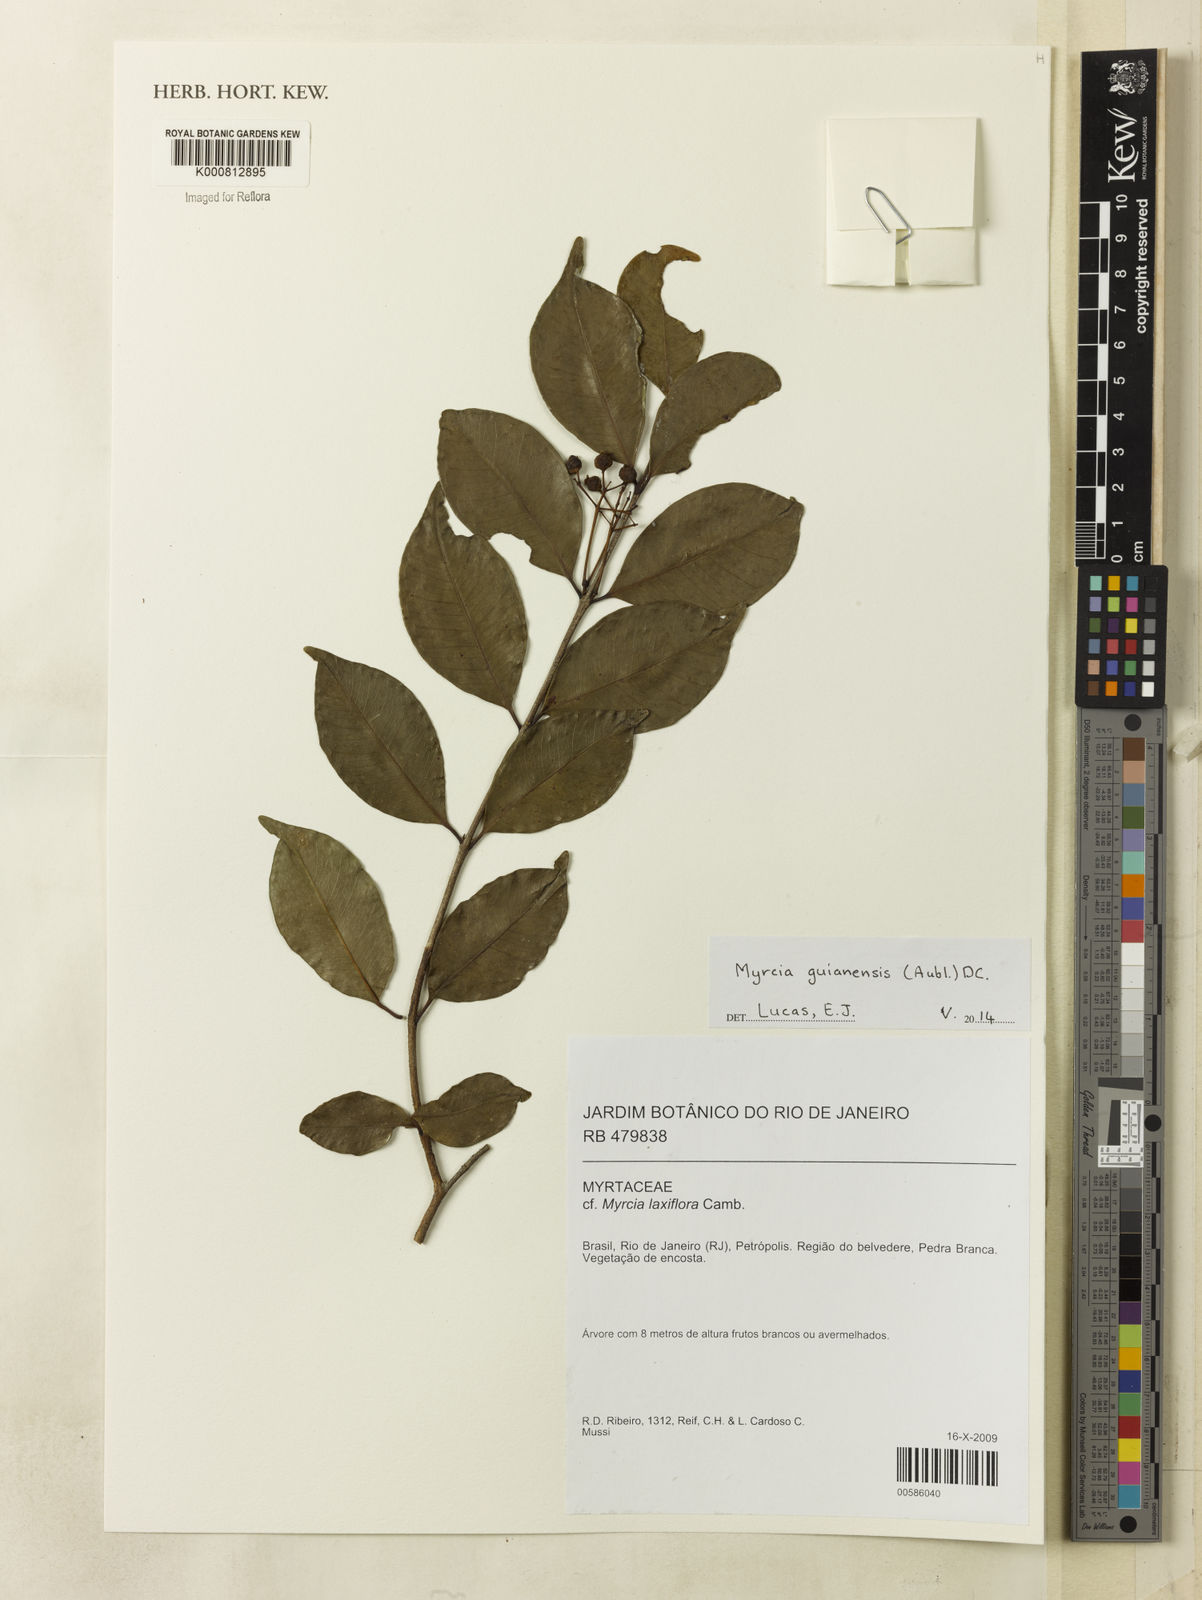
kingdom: Plantae
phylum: Tracheophyta
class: Magnoliopsida
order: Myrtales
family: Myrtaceae
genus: Myrcia
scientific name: Myrcia guianensis
